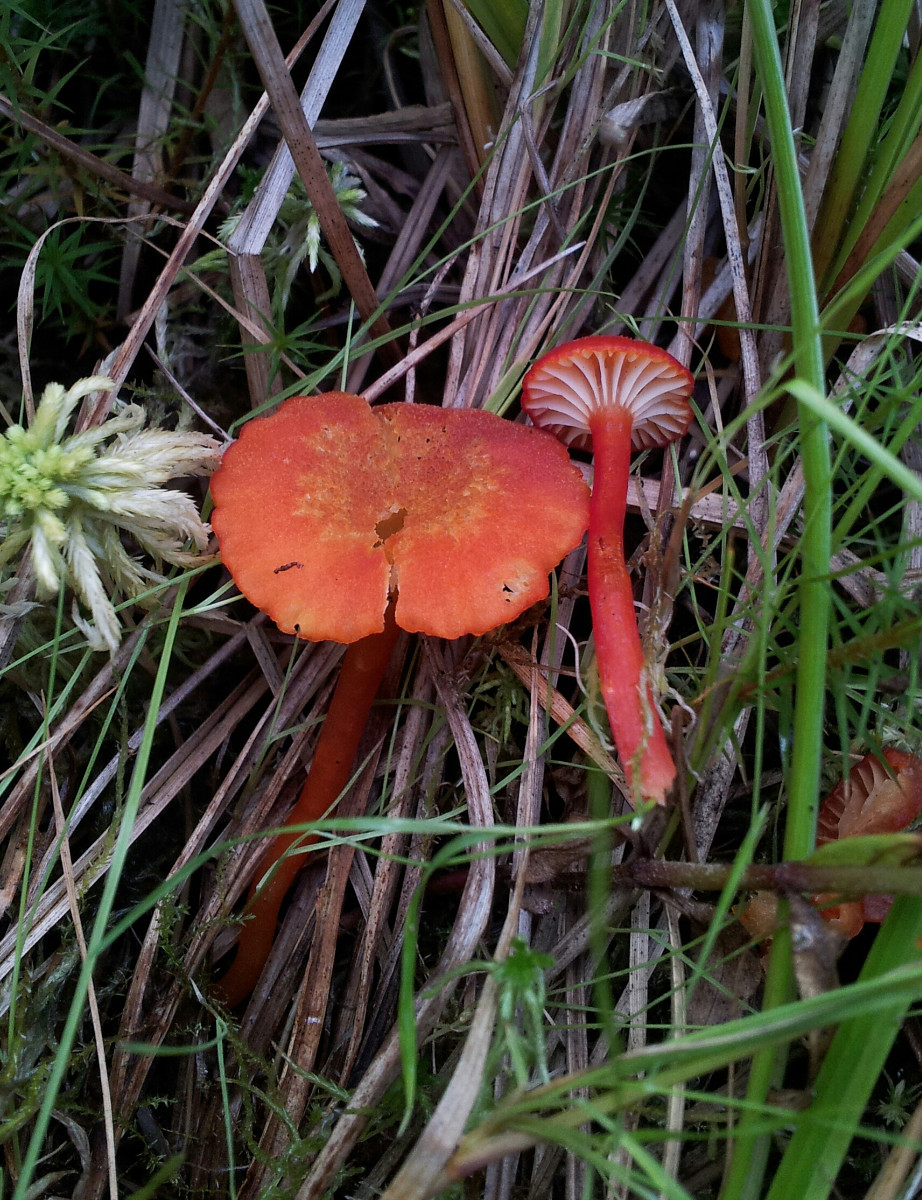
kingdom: Fungi
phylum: Basidiomycota
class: Agaricomycetes
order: Agaricales
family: Hygrophoraceae
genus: Hygrocybe
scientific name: Hygrocybe coccineocrenata
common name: tørvemos-vokshat
